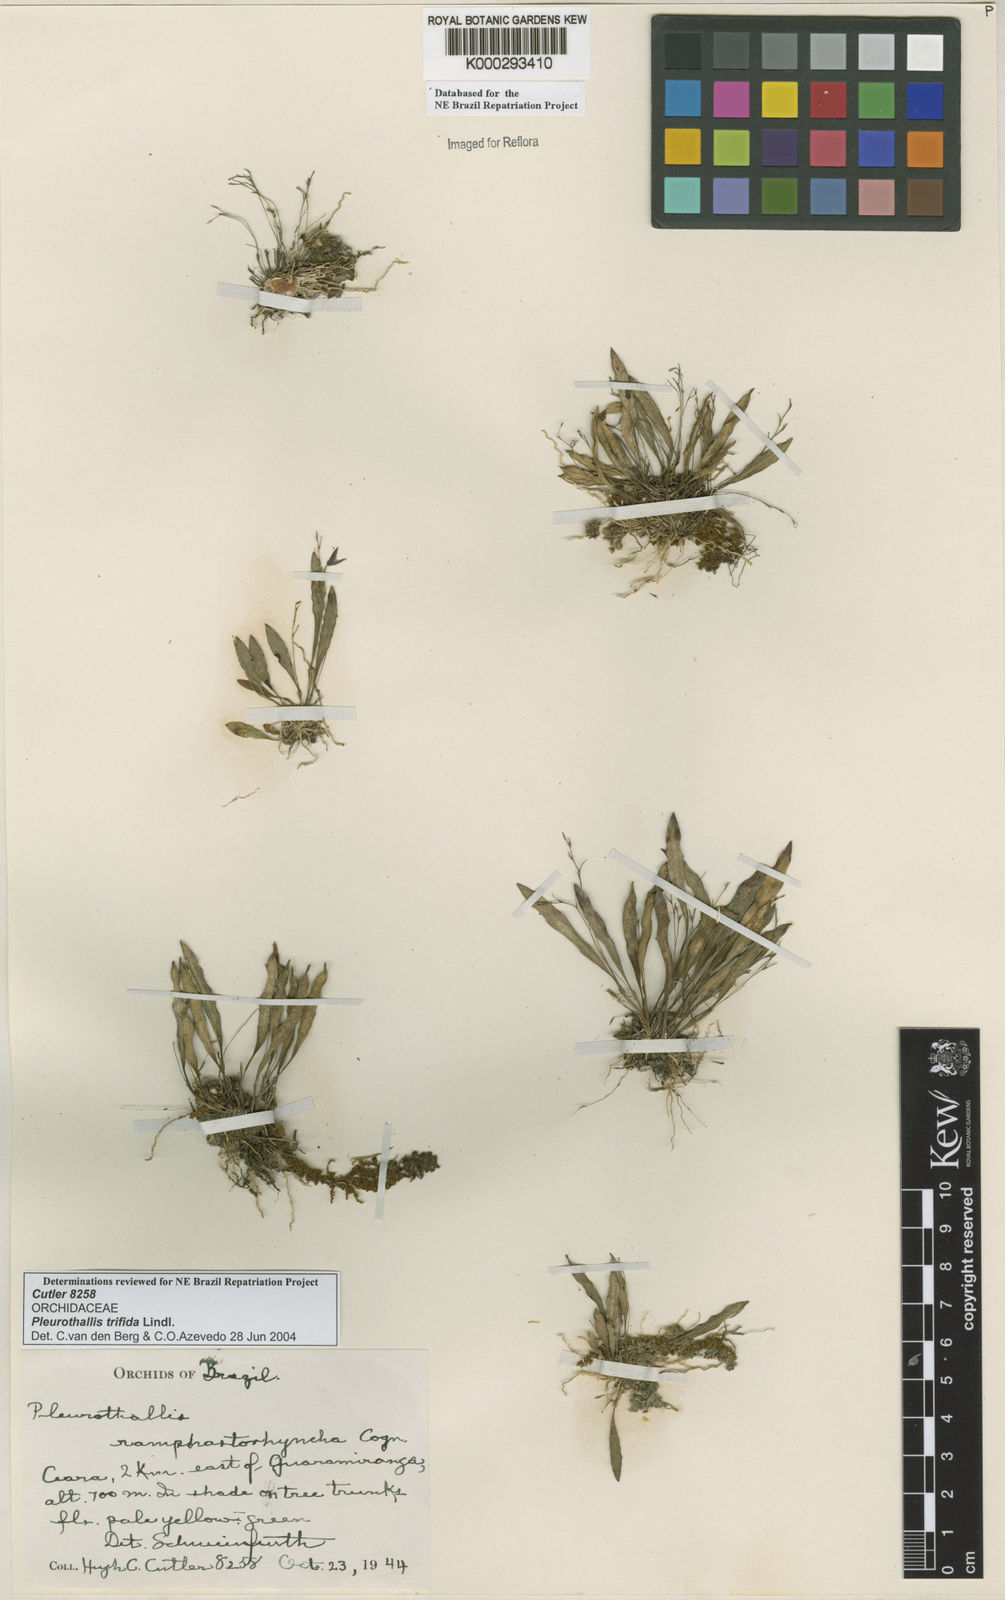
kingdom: Plantae
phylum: Tracheophyta
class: Liliopsida
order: Asparagales
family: Orchidaceae
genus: Pabstiella
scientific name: Pabstiella trifida
